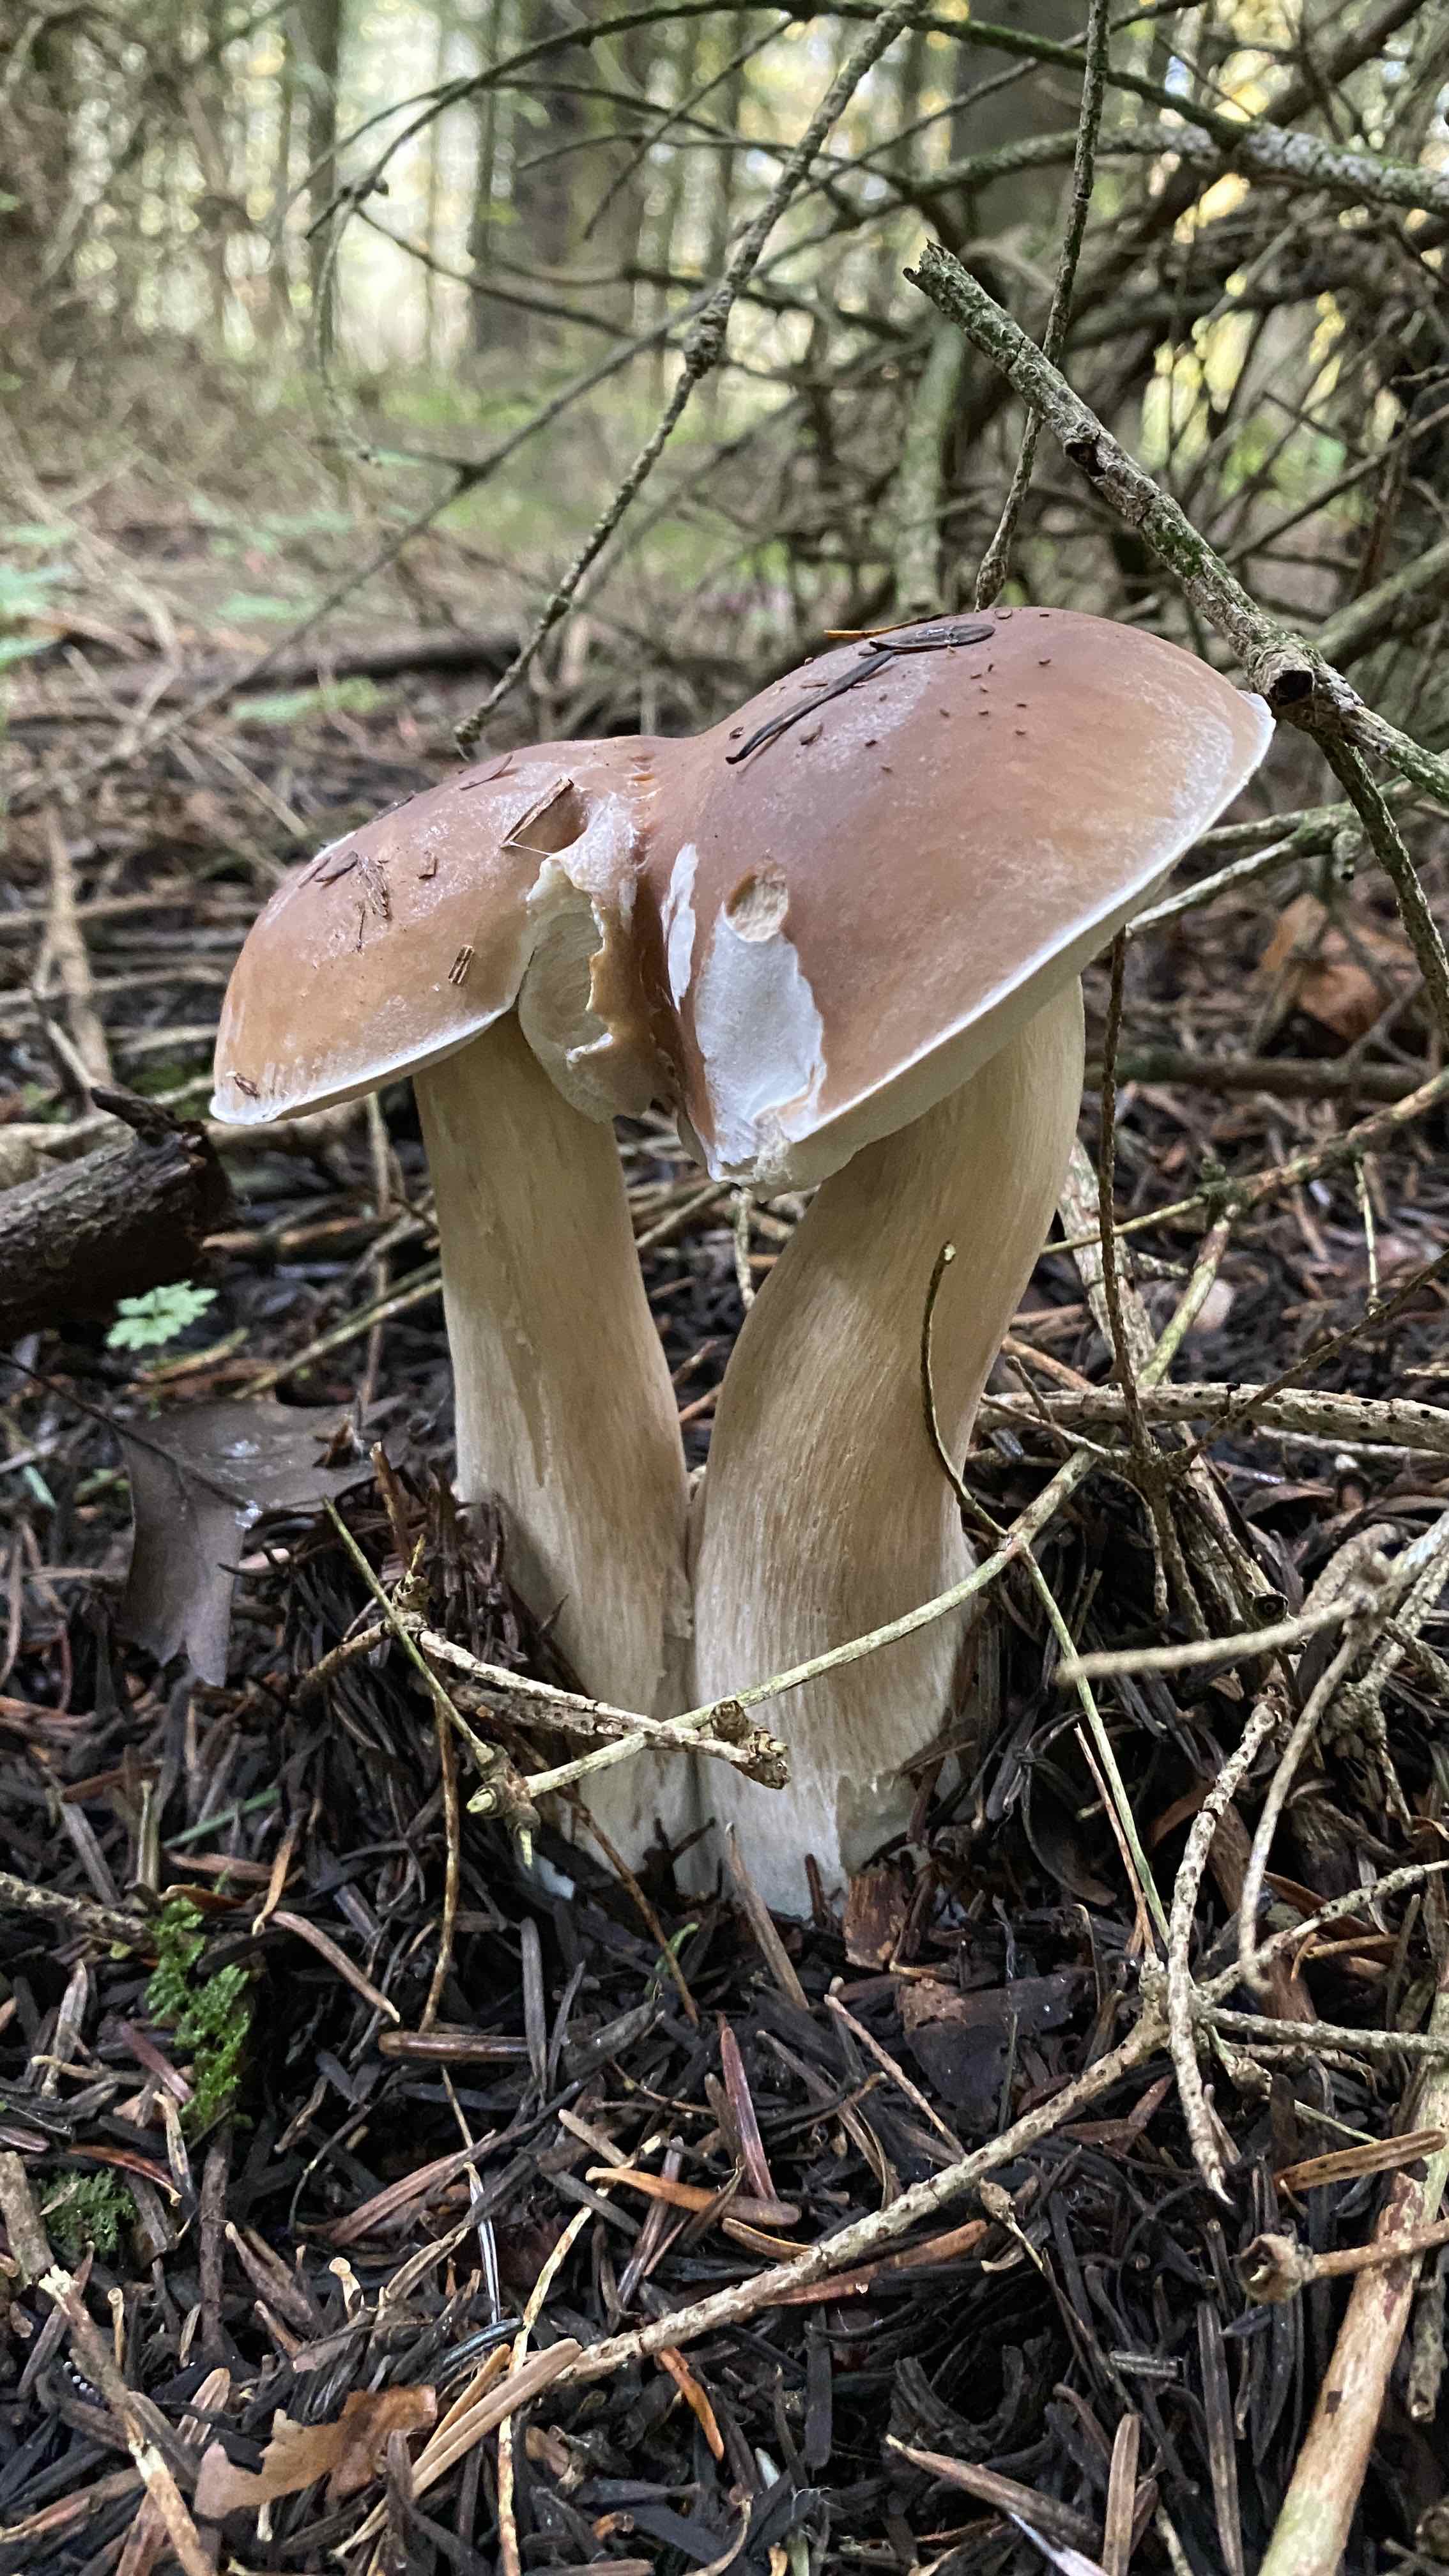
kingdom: Fungi
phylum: Basidiomycota
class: Agaricomycetes
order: Boletales
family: Boletaceae
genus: Boletus
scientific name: Boletus edulis
